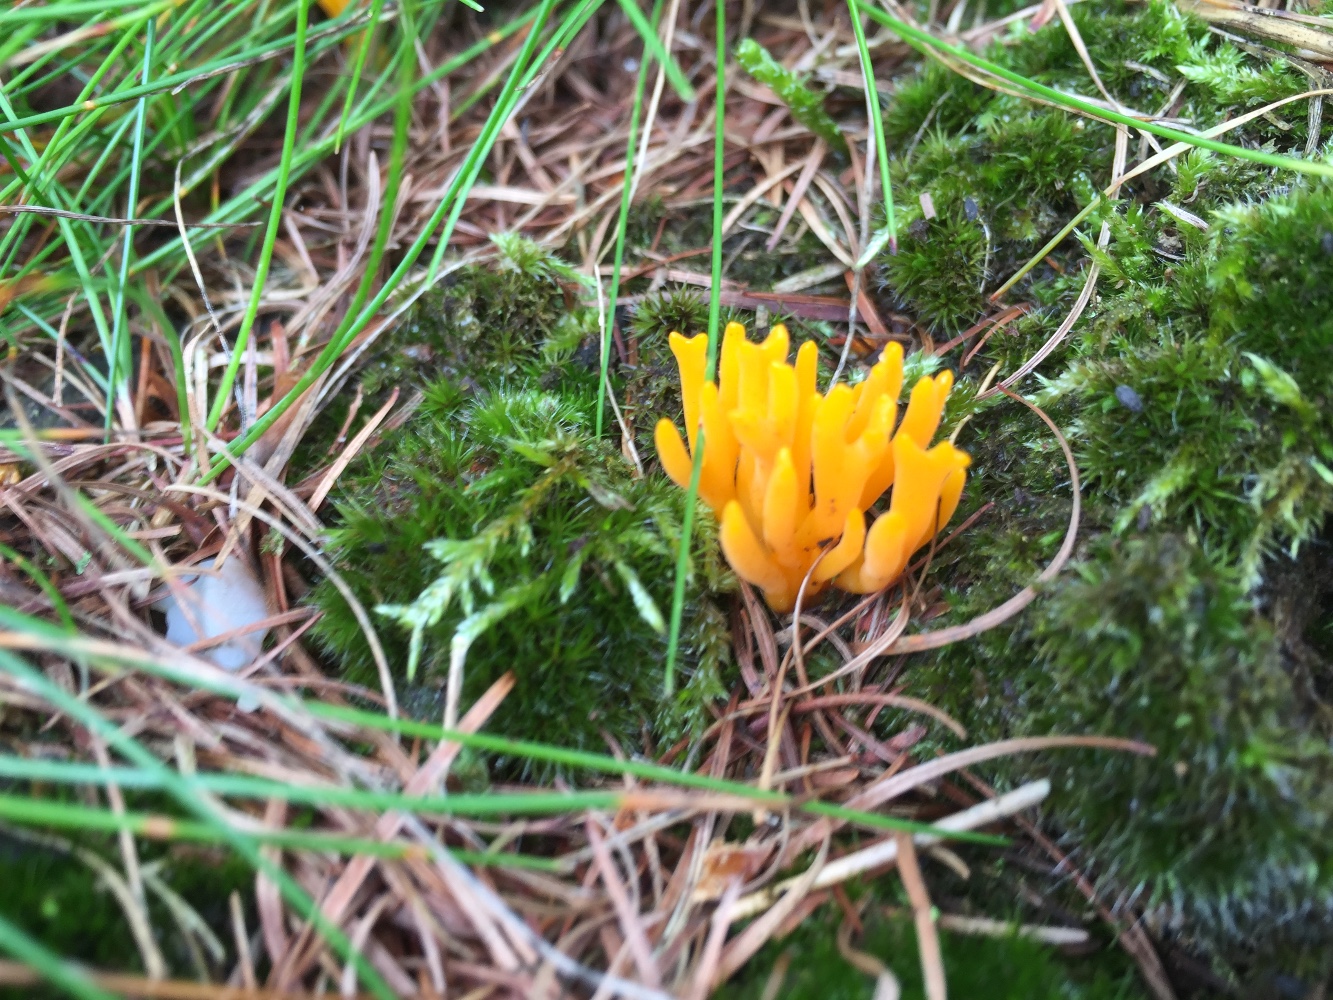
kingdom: Fungi
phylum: Basidiomycota
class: Dacrymycetes
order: Dacrymycetales
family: Dacrymycetaceae
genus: Calocera
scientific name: Calocera viscosa
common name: almindelig guldgaffel
